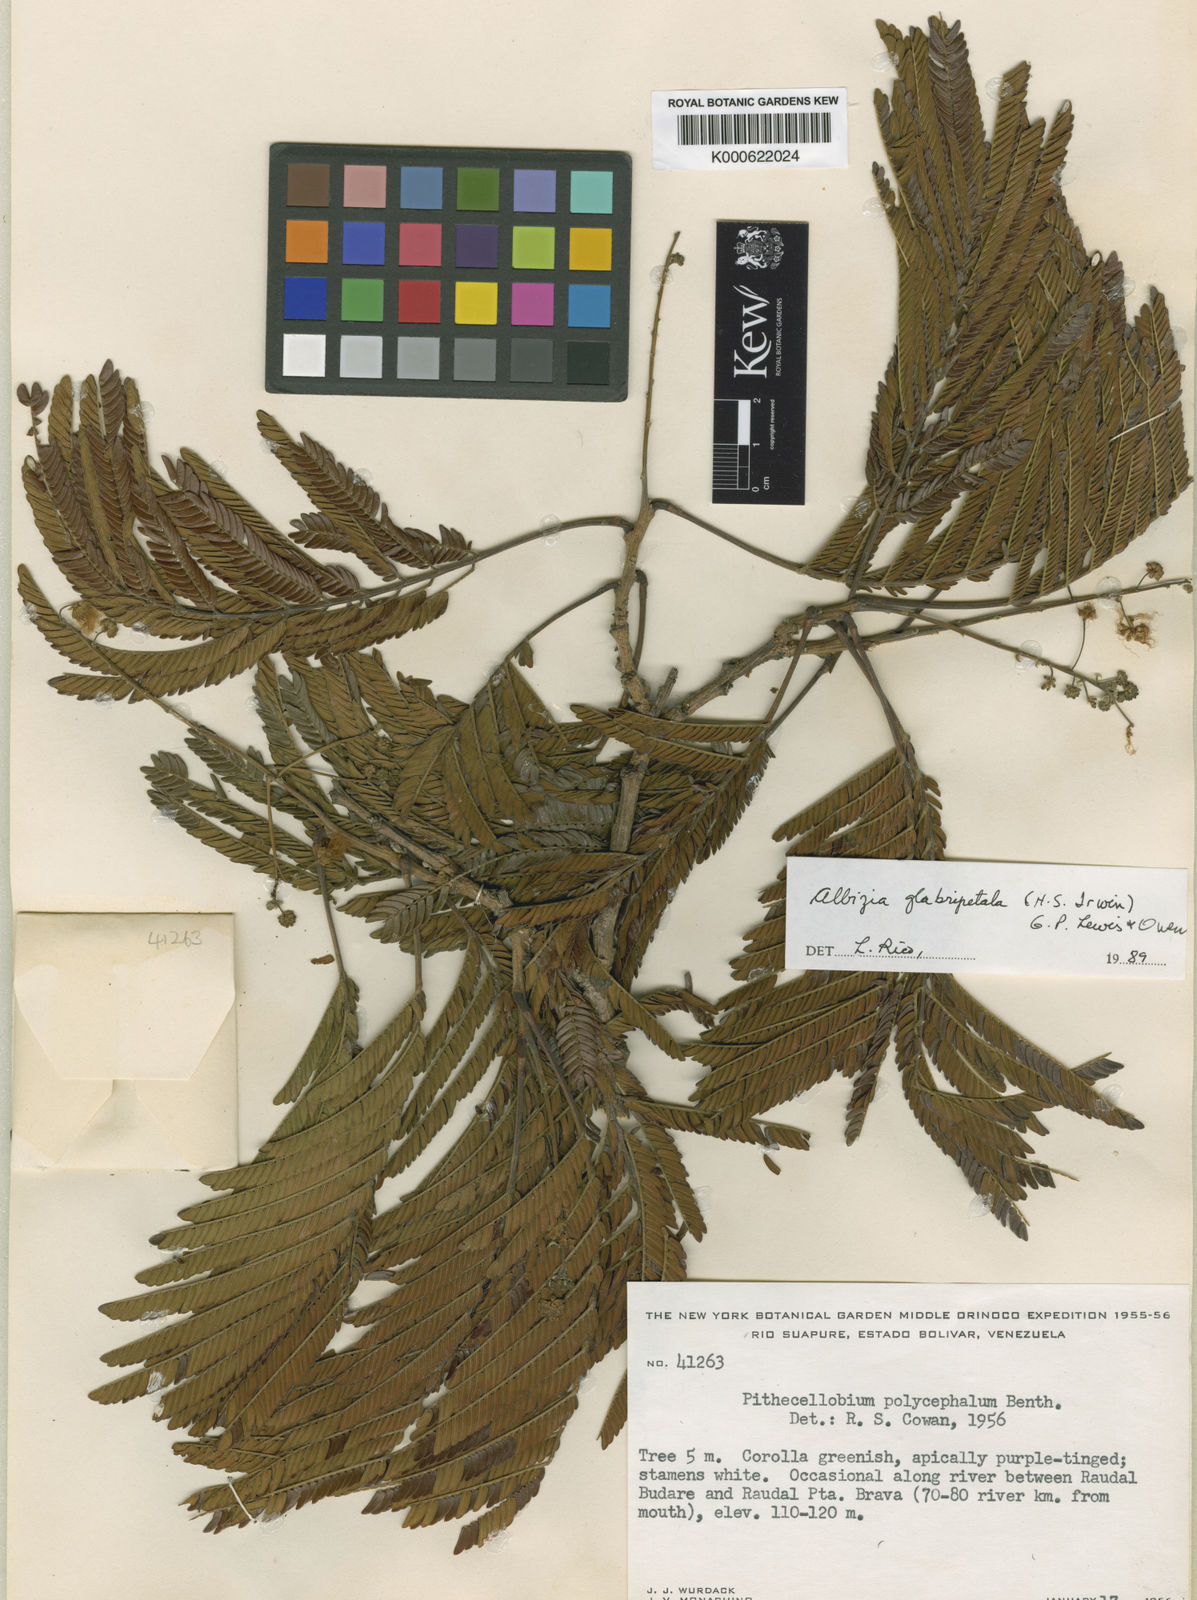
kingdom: Plantae
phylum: Tracheophyta
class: Magnoliopsida
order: Fabales
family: Fabaceae
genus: Albizia
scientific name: Albizia glabripetala
